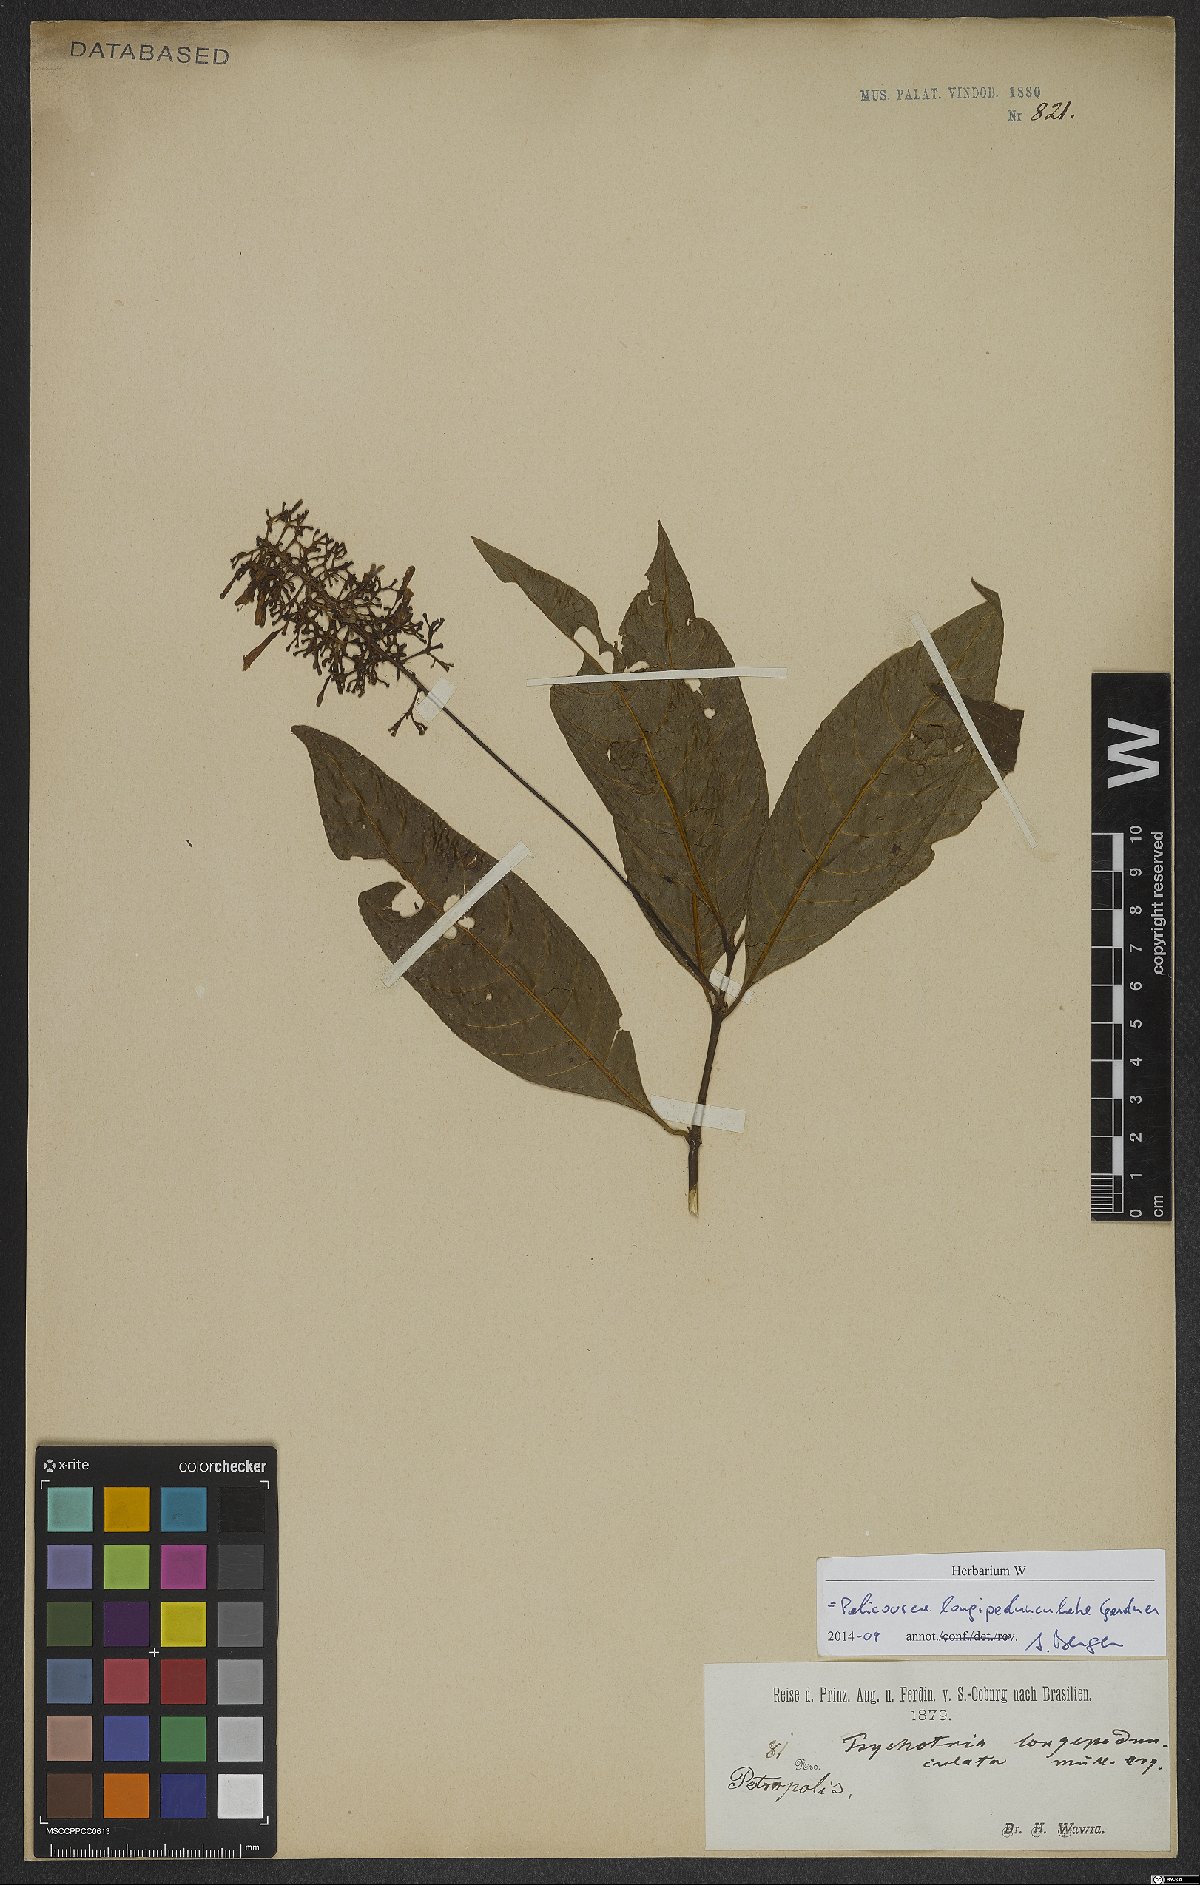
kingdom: Plantae
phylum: Tracheophyta
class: Magnoliopsida
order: Gentianales
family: Rubiaceae
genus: Palicourea
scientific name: Palicourea longipedunculata
